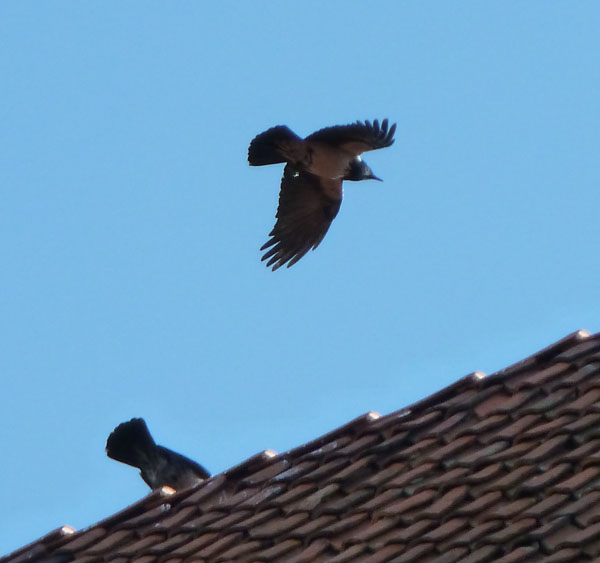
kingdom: Animalia
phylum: Chordata
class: Aves
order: Passeriformes
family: Corvidae
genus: Corvus
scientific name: Corvus cornix
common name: Hooded crow
